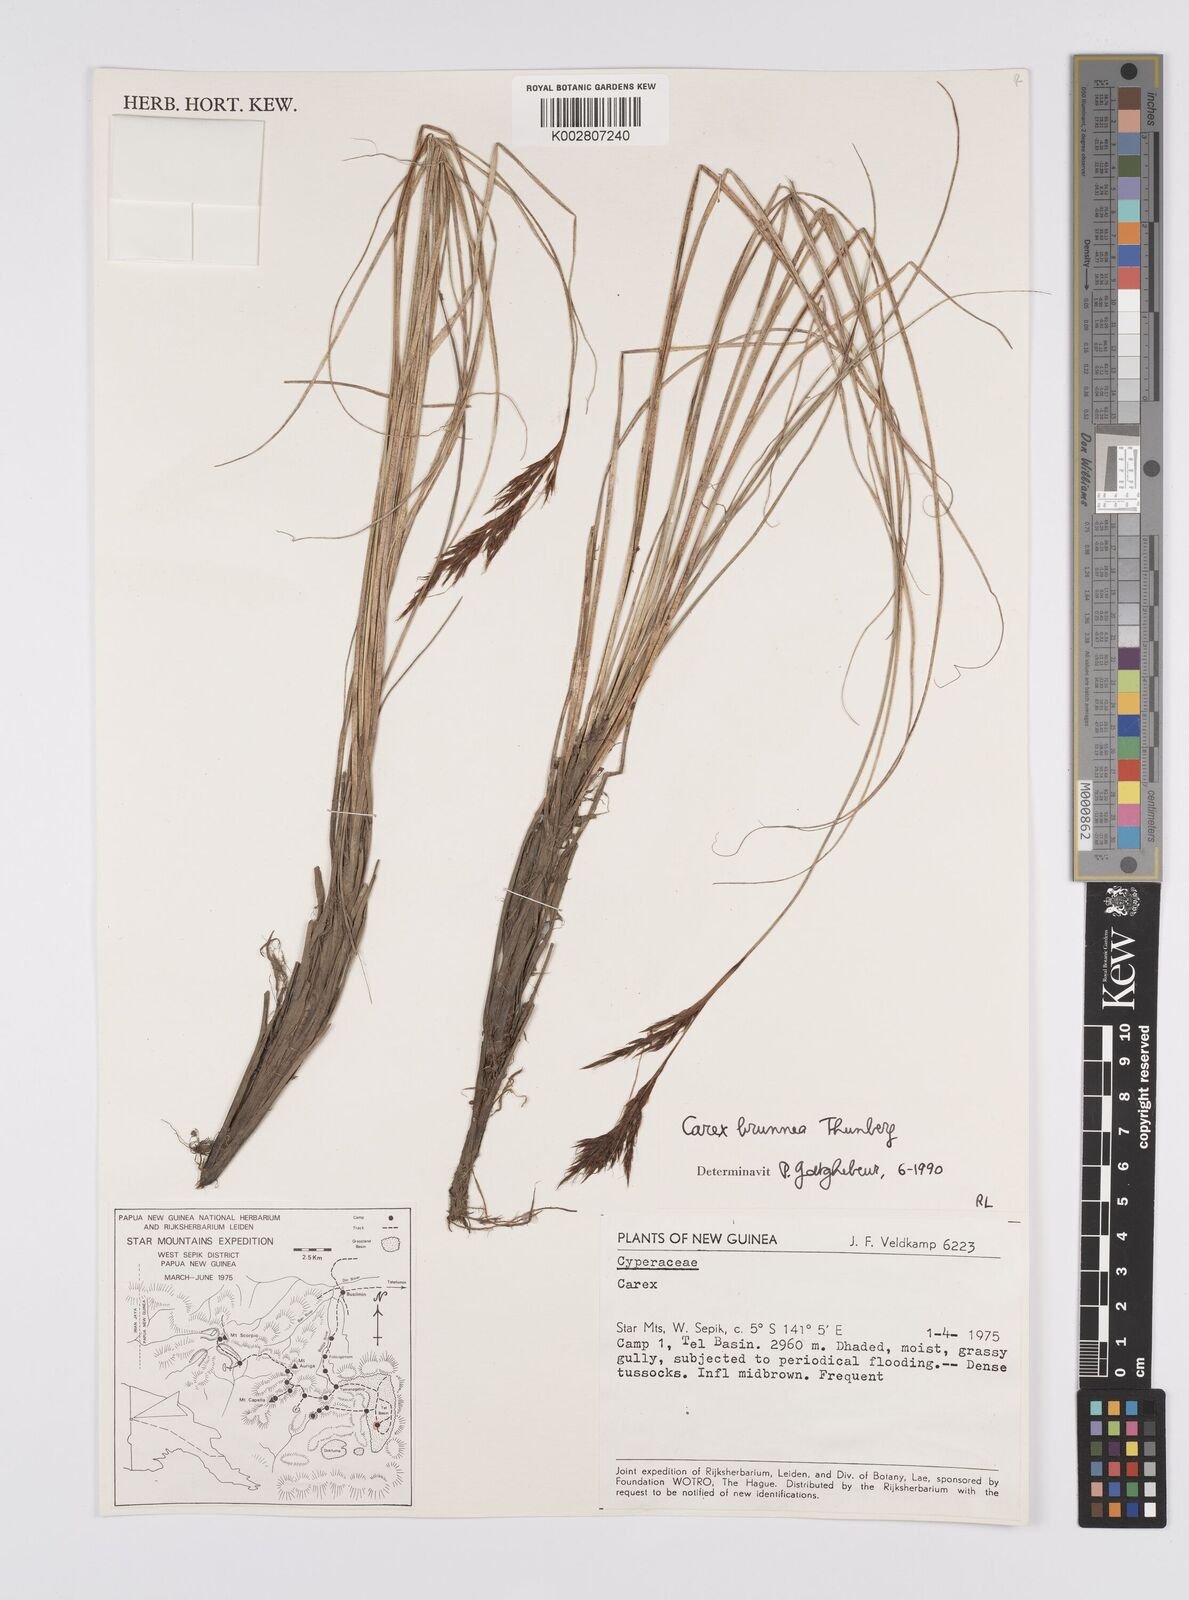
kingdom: Plantae
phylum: Tracheophyta
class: Liliopsida
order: Poales
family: Cyperaceae
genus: Carex
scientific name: Carex brunnea
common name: Greater brown sedge
